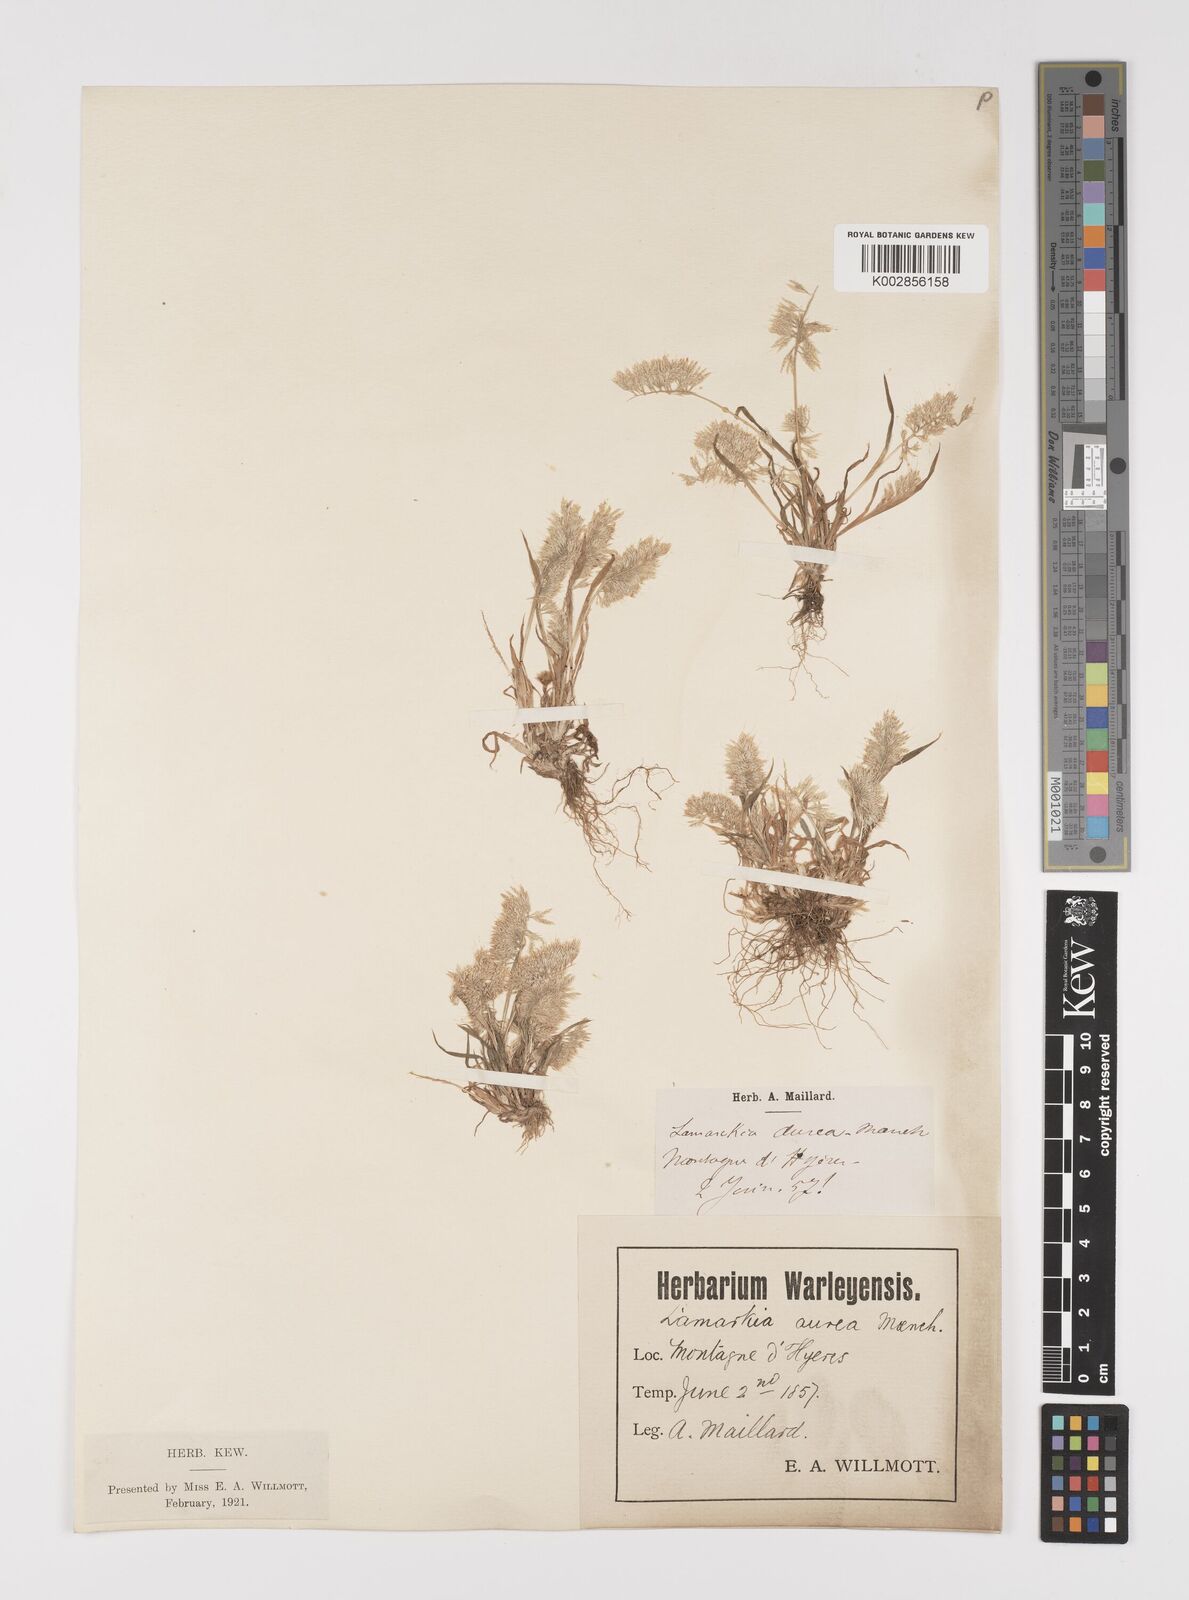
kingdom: Plantae
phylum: Tracheophyta
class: Liliopsida
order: Poales
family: Poaceae
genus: Lamarckia
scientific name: Lamarckia aurea
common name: Golden dog's-tail
